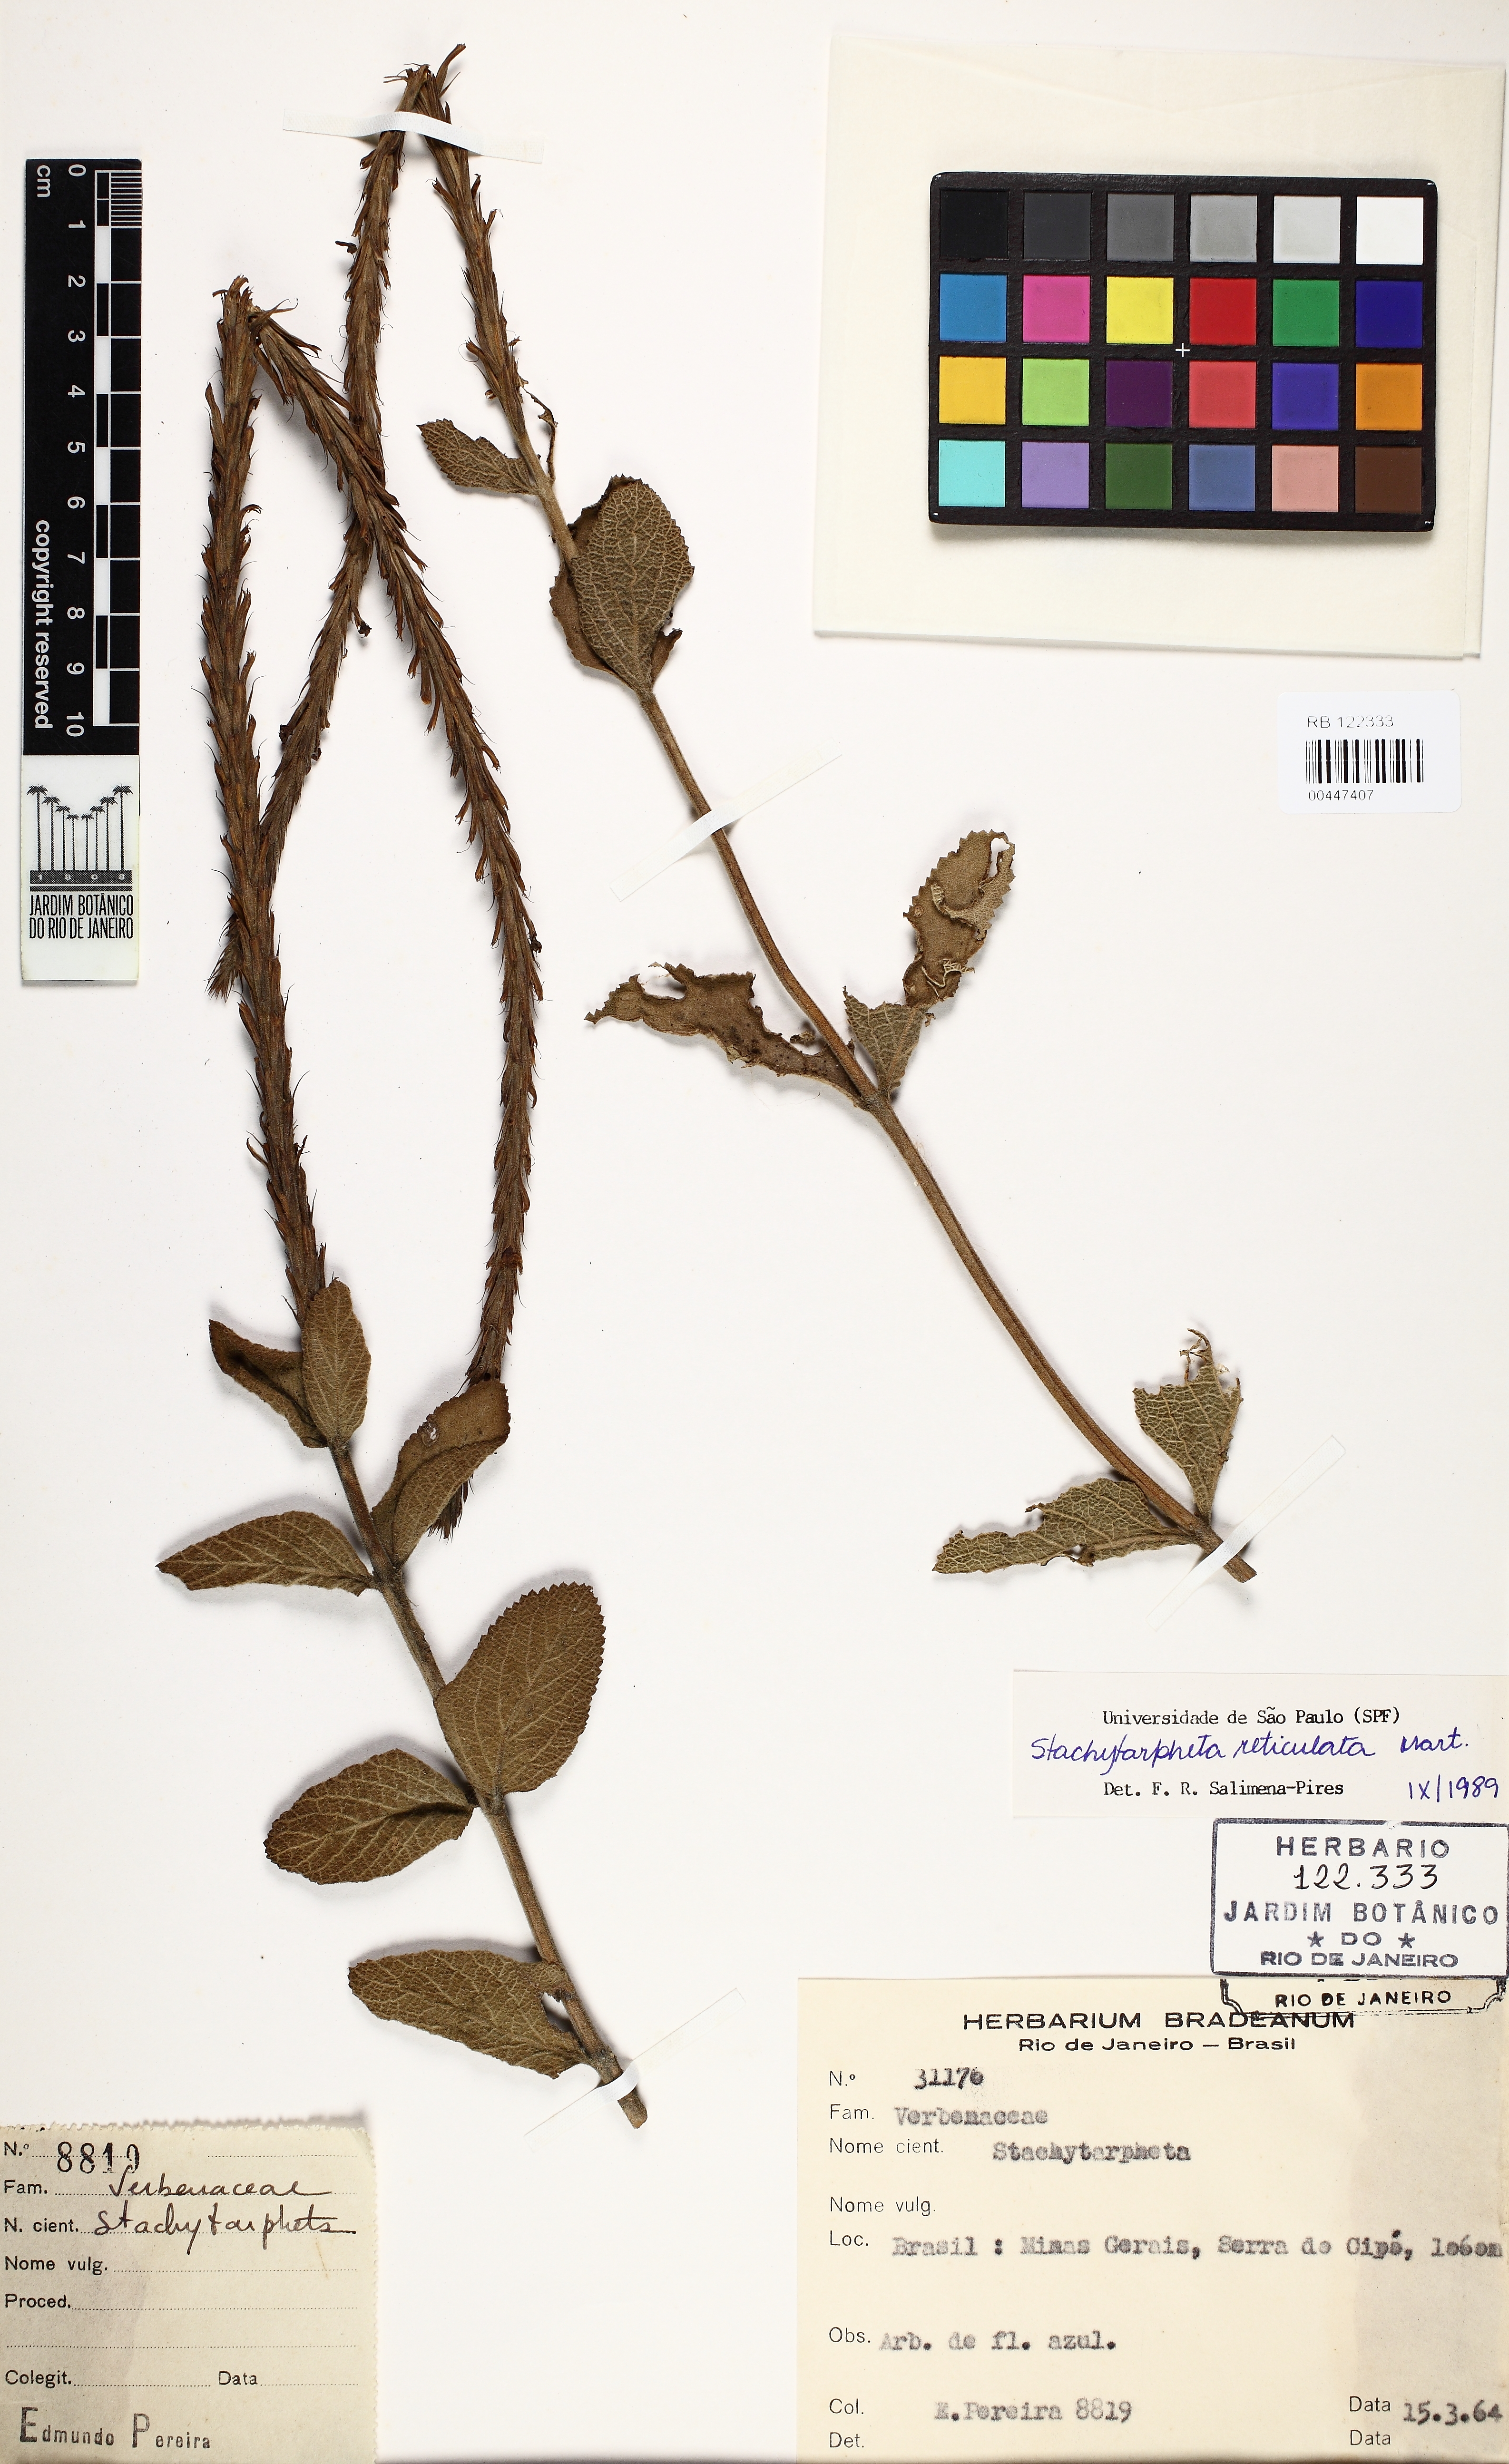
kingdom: Plantae
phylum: Tracheophyta
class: Magnoliopsida
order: Lamiales
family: Verbenaceae
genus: Stachytarpheta
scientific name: Stachytarpheta reticulata
